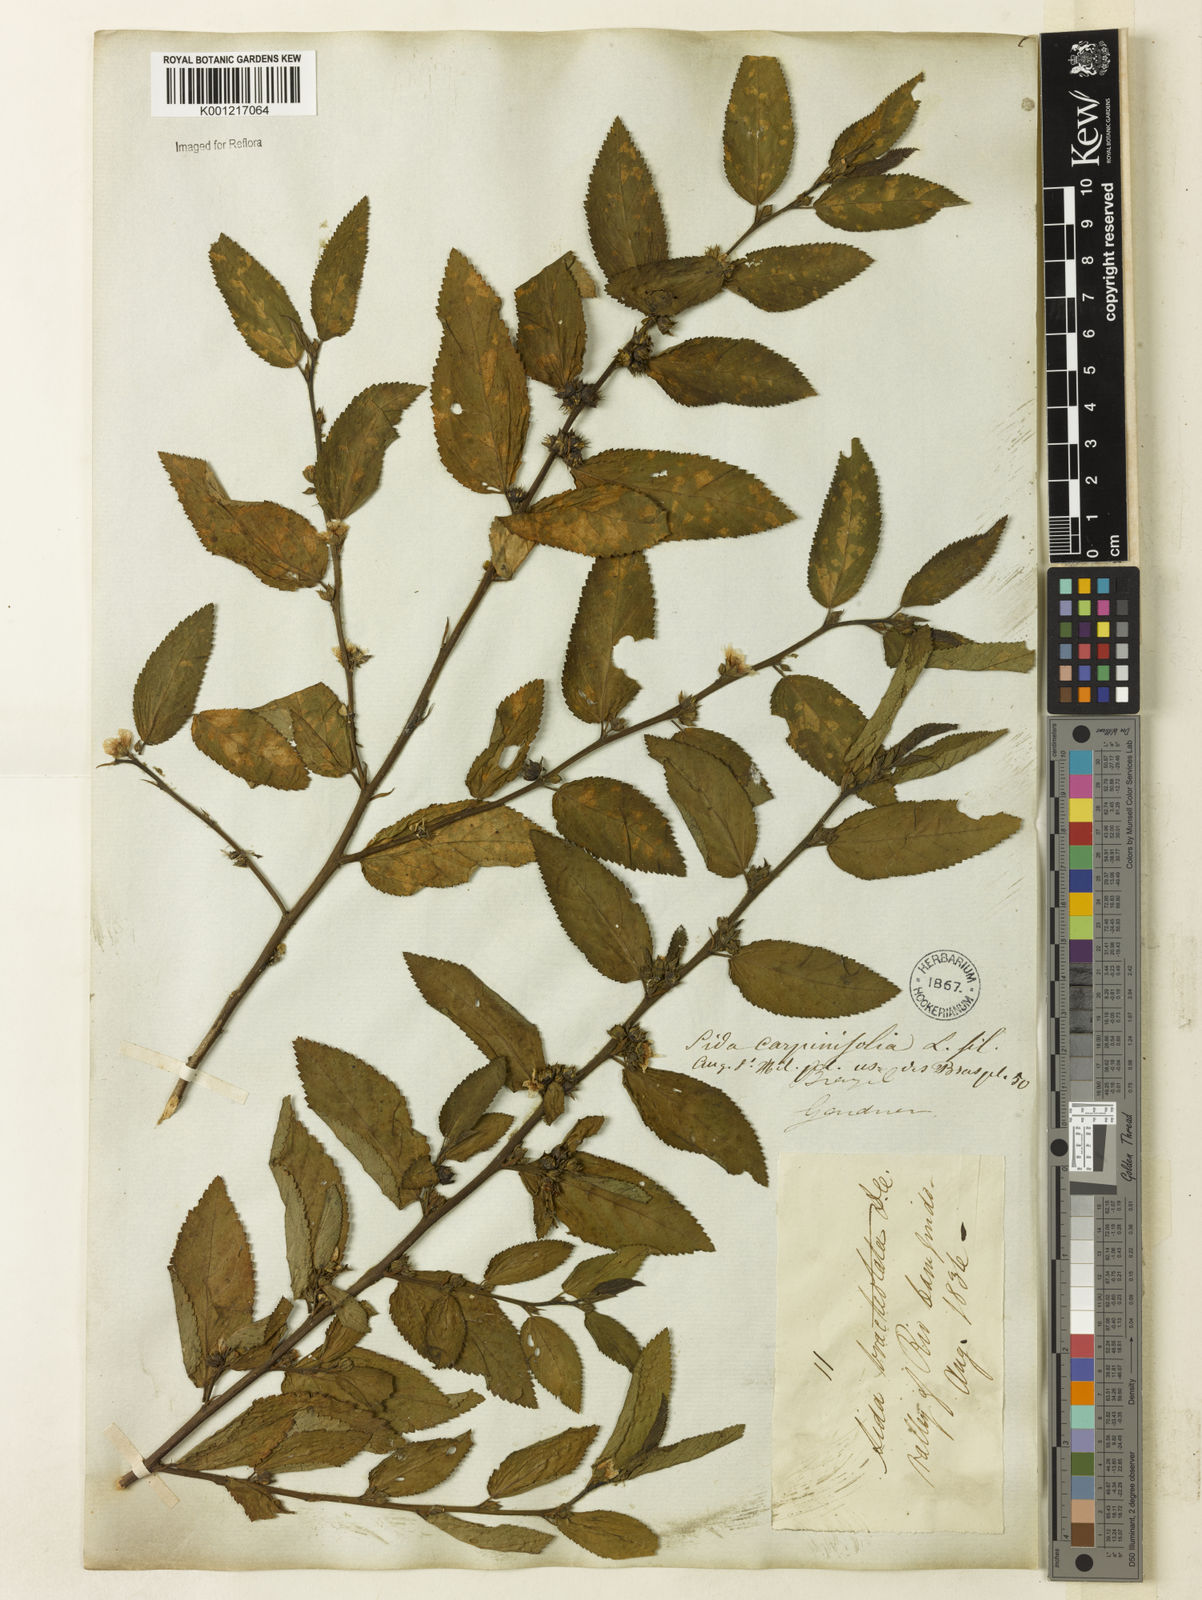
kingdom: Plantae
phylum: Tracheophyta
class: Magnoliopsida
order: Malvales
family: Malvaceae
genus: Sida
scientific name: Sida planicaulis
